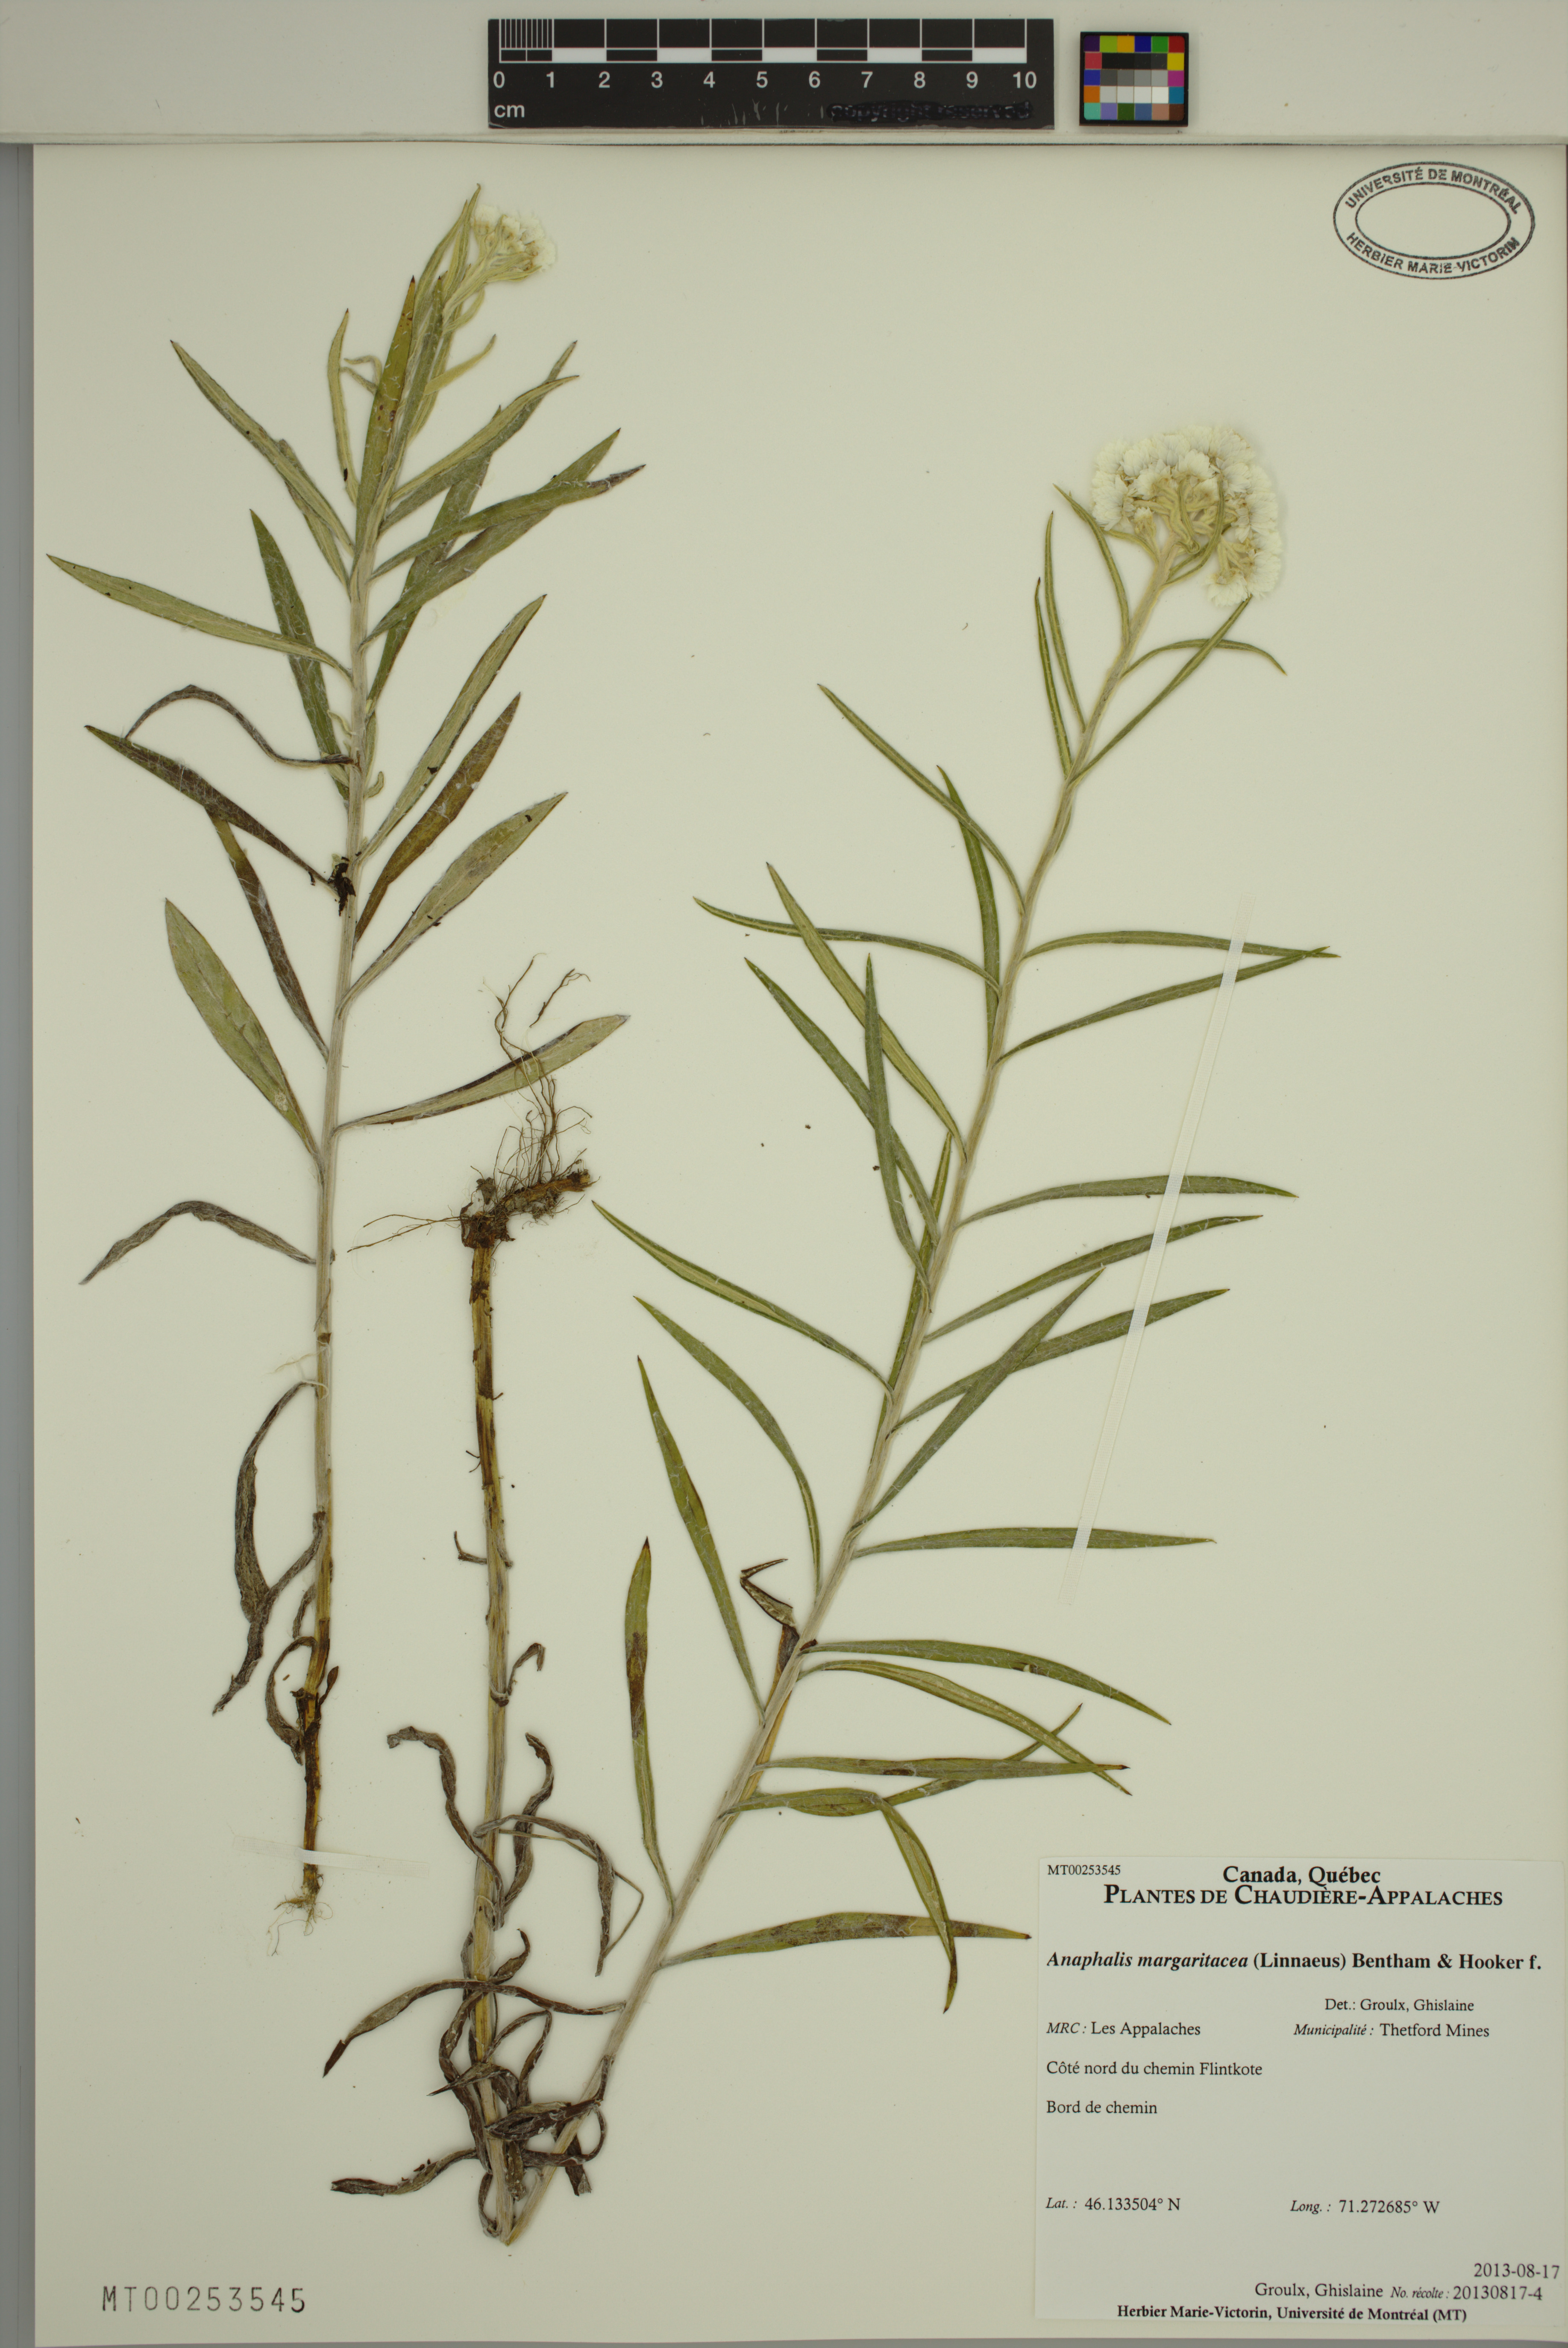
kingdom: Plantae
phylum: Tracheophyta
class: Magnoliopsida
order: Asterales
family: Asteraceae
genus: Anaphalis
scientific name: Anaphalis margaritacea
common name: Pearly everlasting
